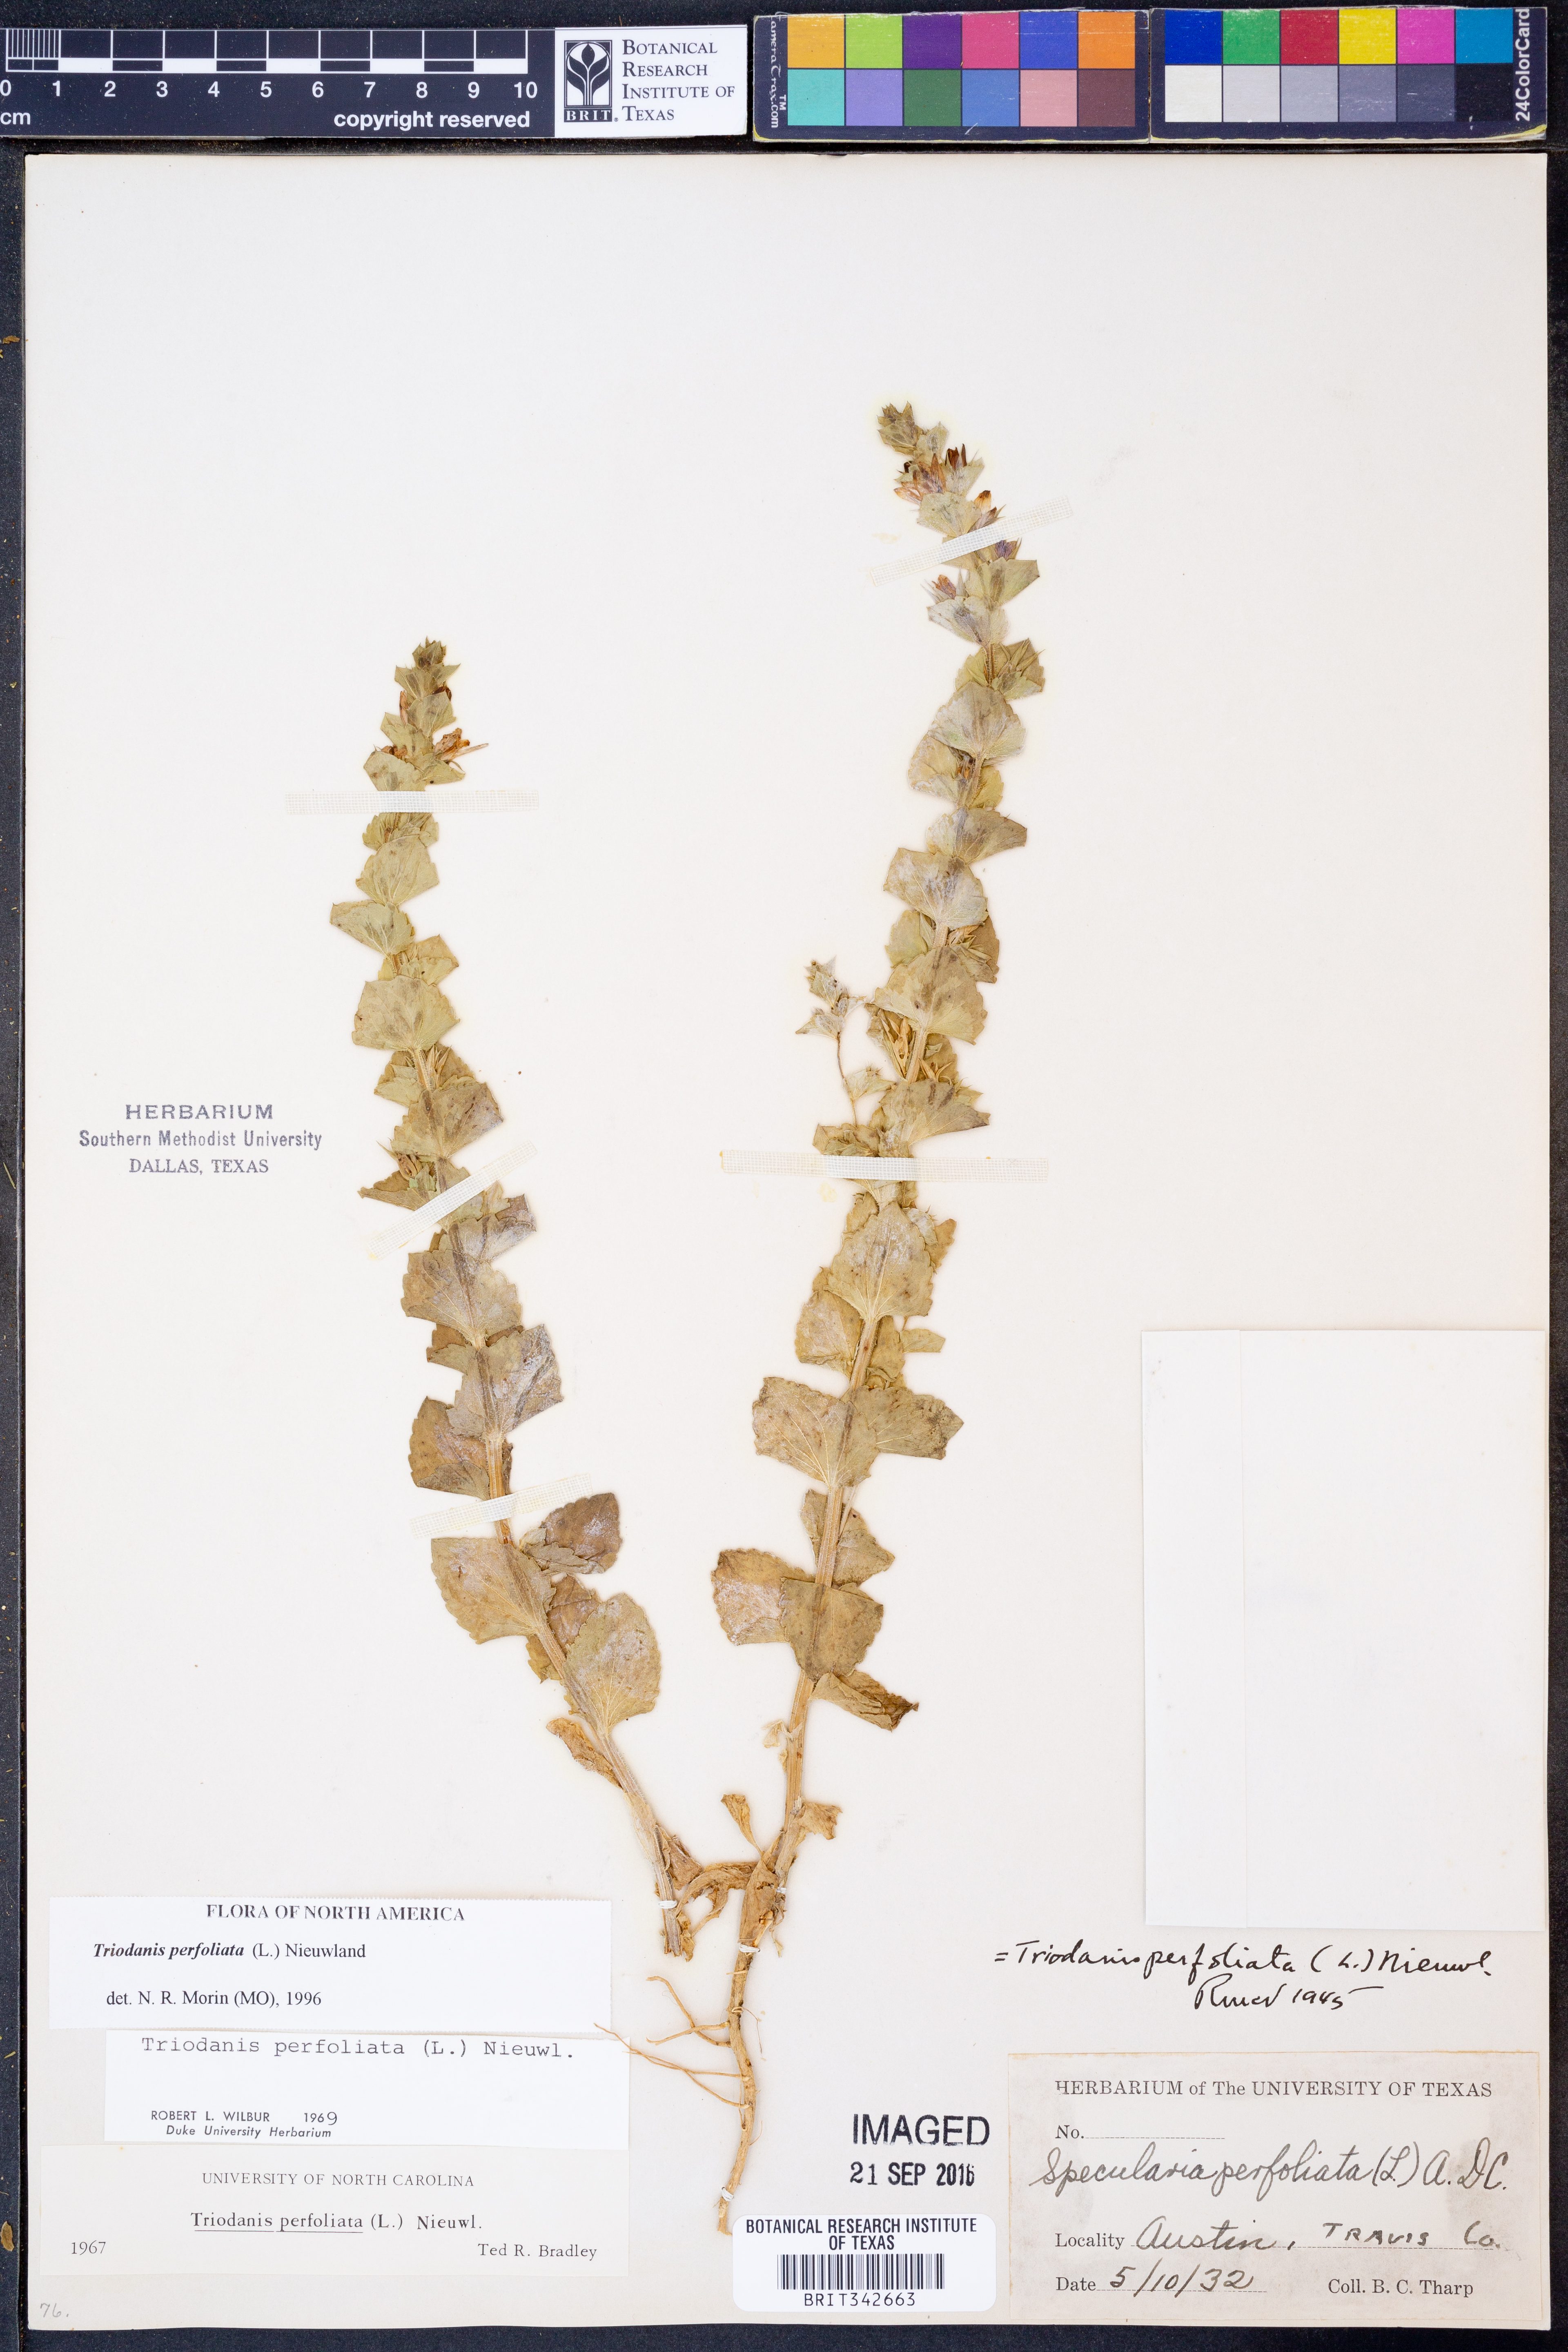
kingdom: Plantae
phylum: Tracheophyta
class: Magnoliopsida
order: Asterales
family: Campanulaceae
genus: Triodanis
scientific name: Triodanis perfoliata
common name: Clasping venus' looking-glass
